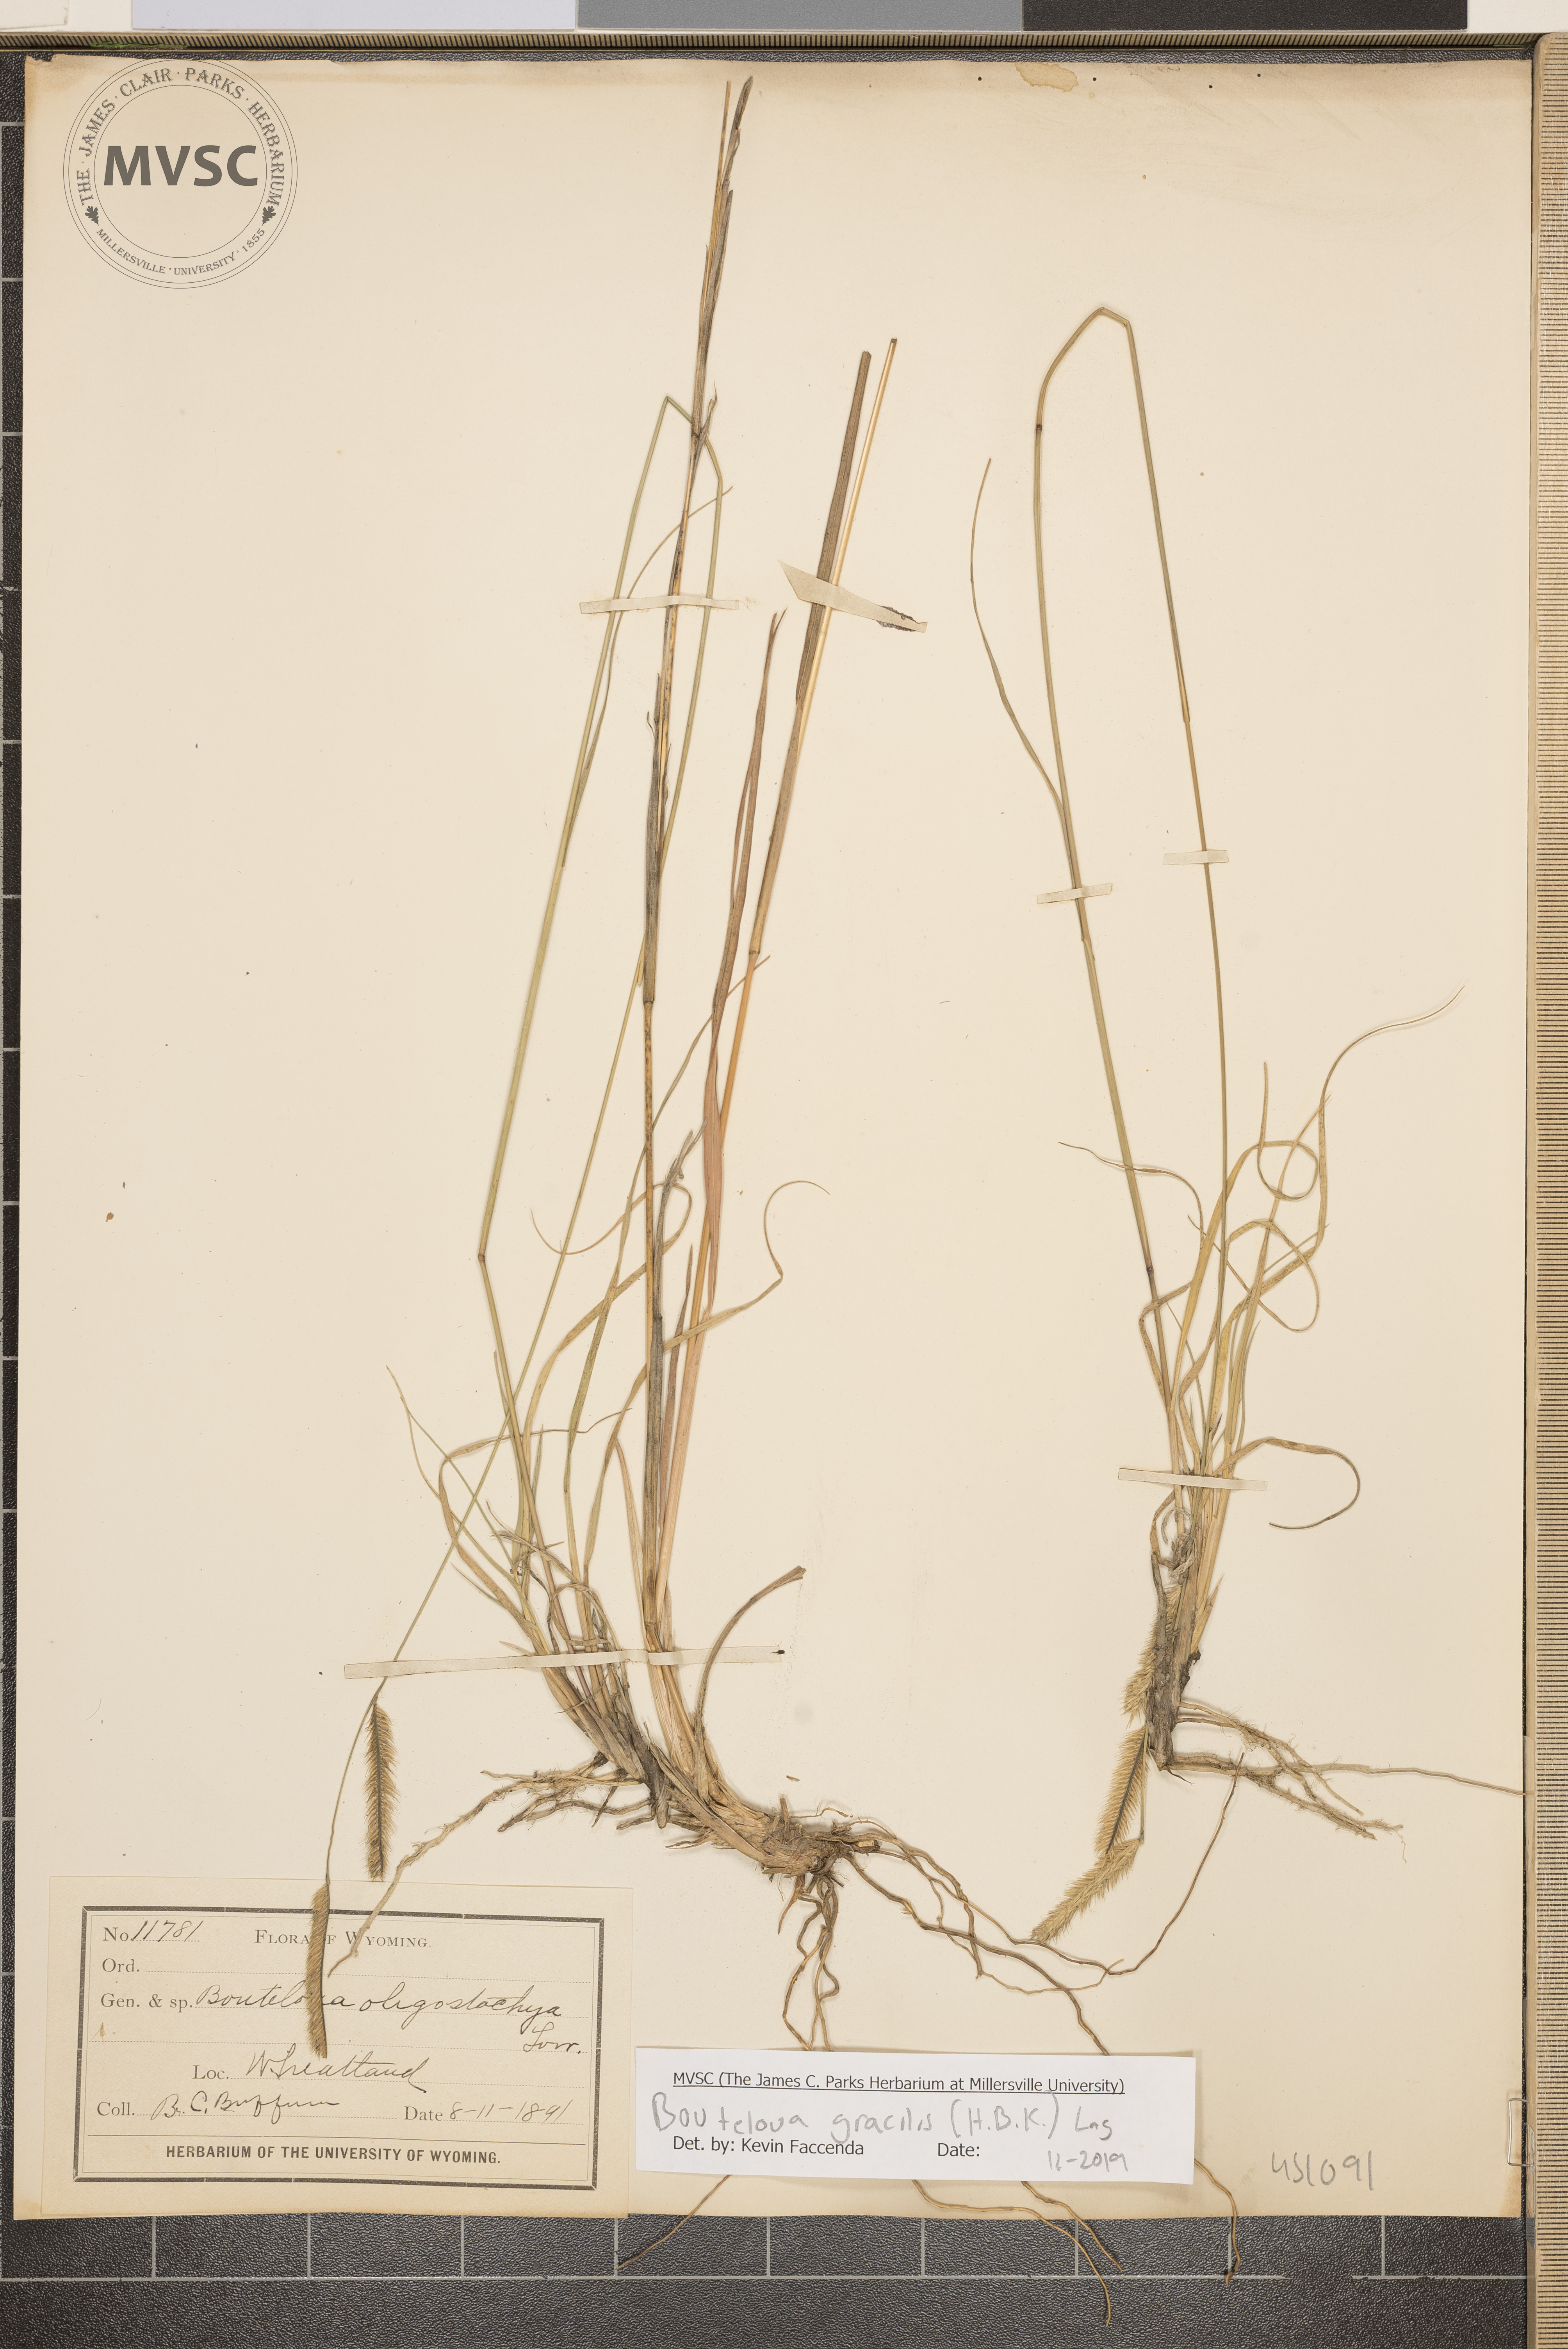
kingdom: Plantae
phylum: Tracheophyta
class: Liliopsida
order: Poales
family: Poaceae
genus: Bouteloua
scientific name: Bouteloua gracilis
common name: Blue grama
